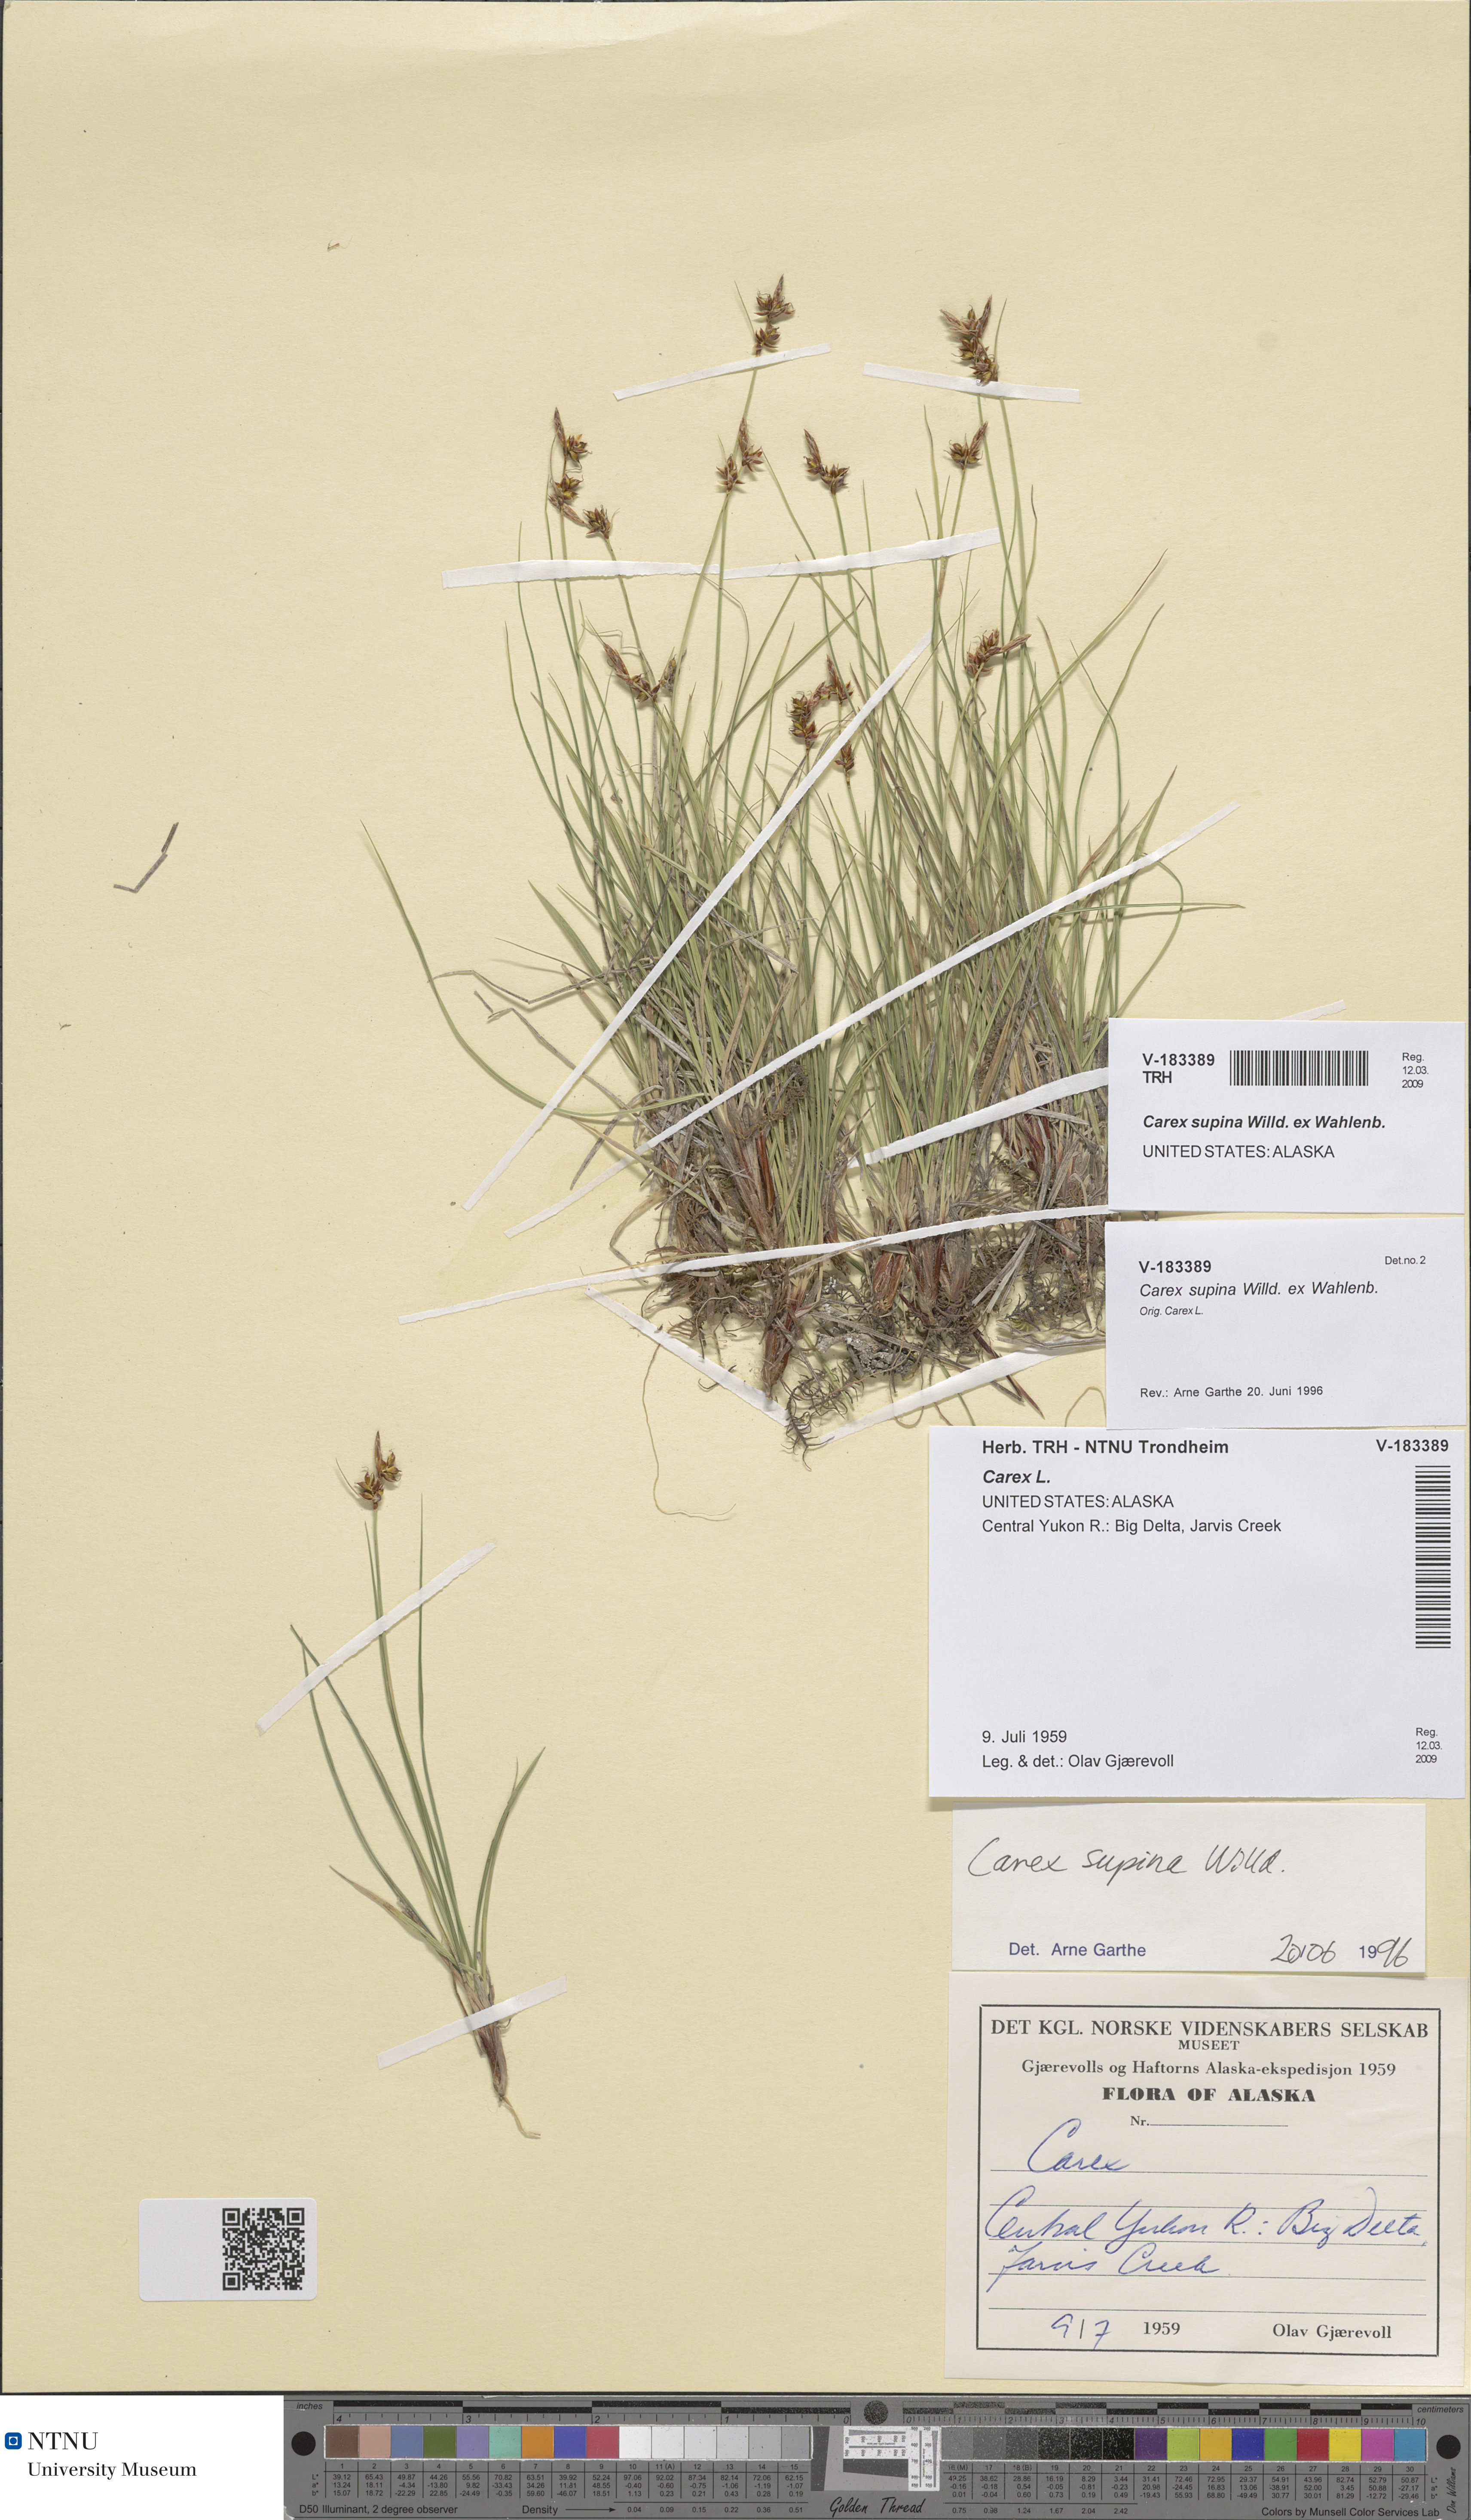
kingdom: Plantae
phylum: Tracheophyta
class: Liliopsida
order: Poales
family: Cyperaceae
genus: Carex
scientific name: Carex supina
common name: Lying-back sedge
